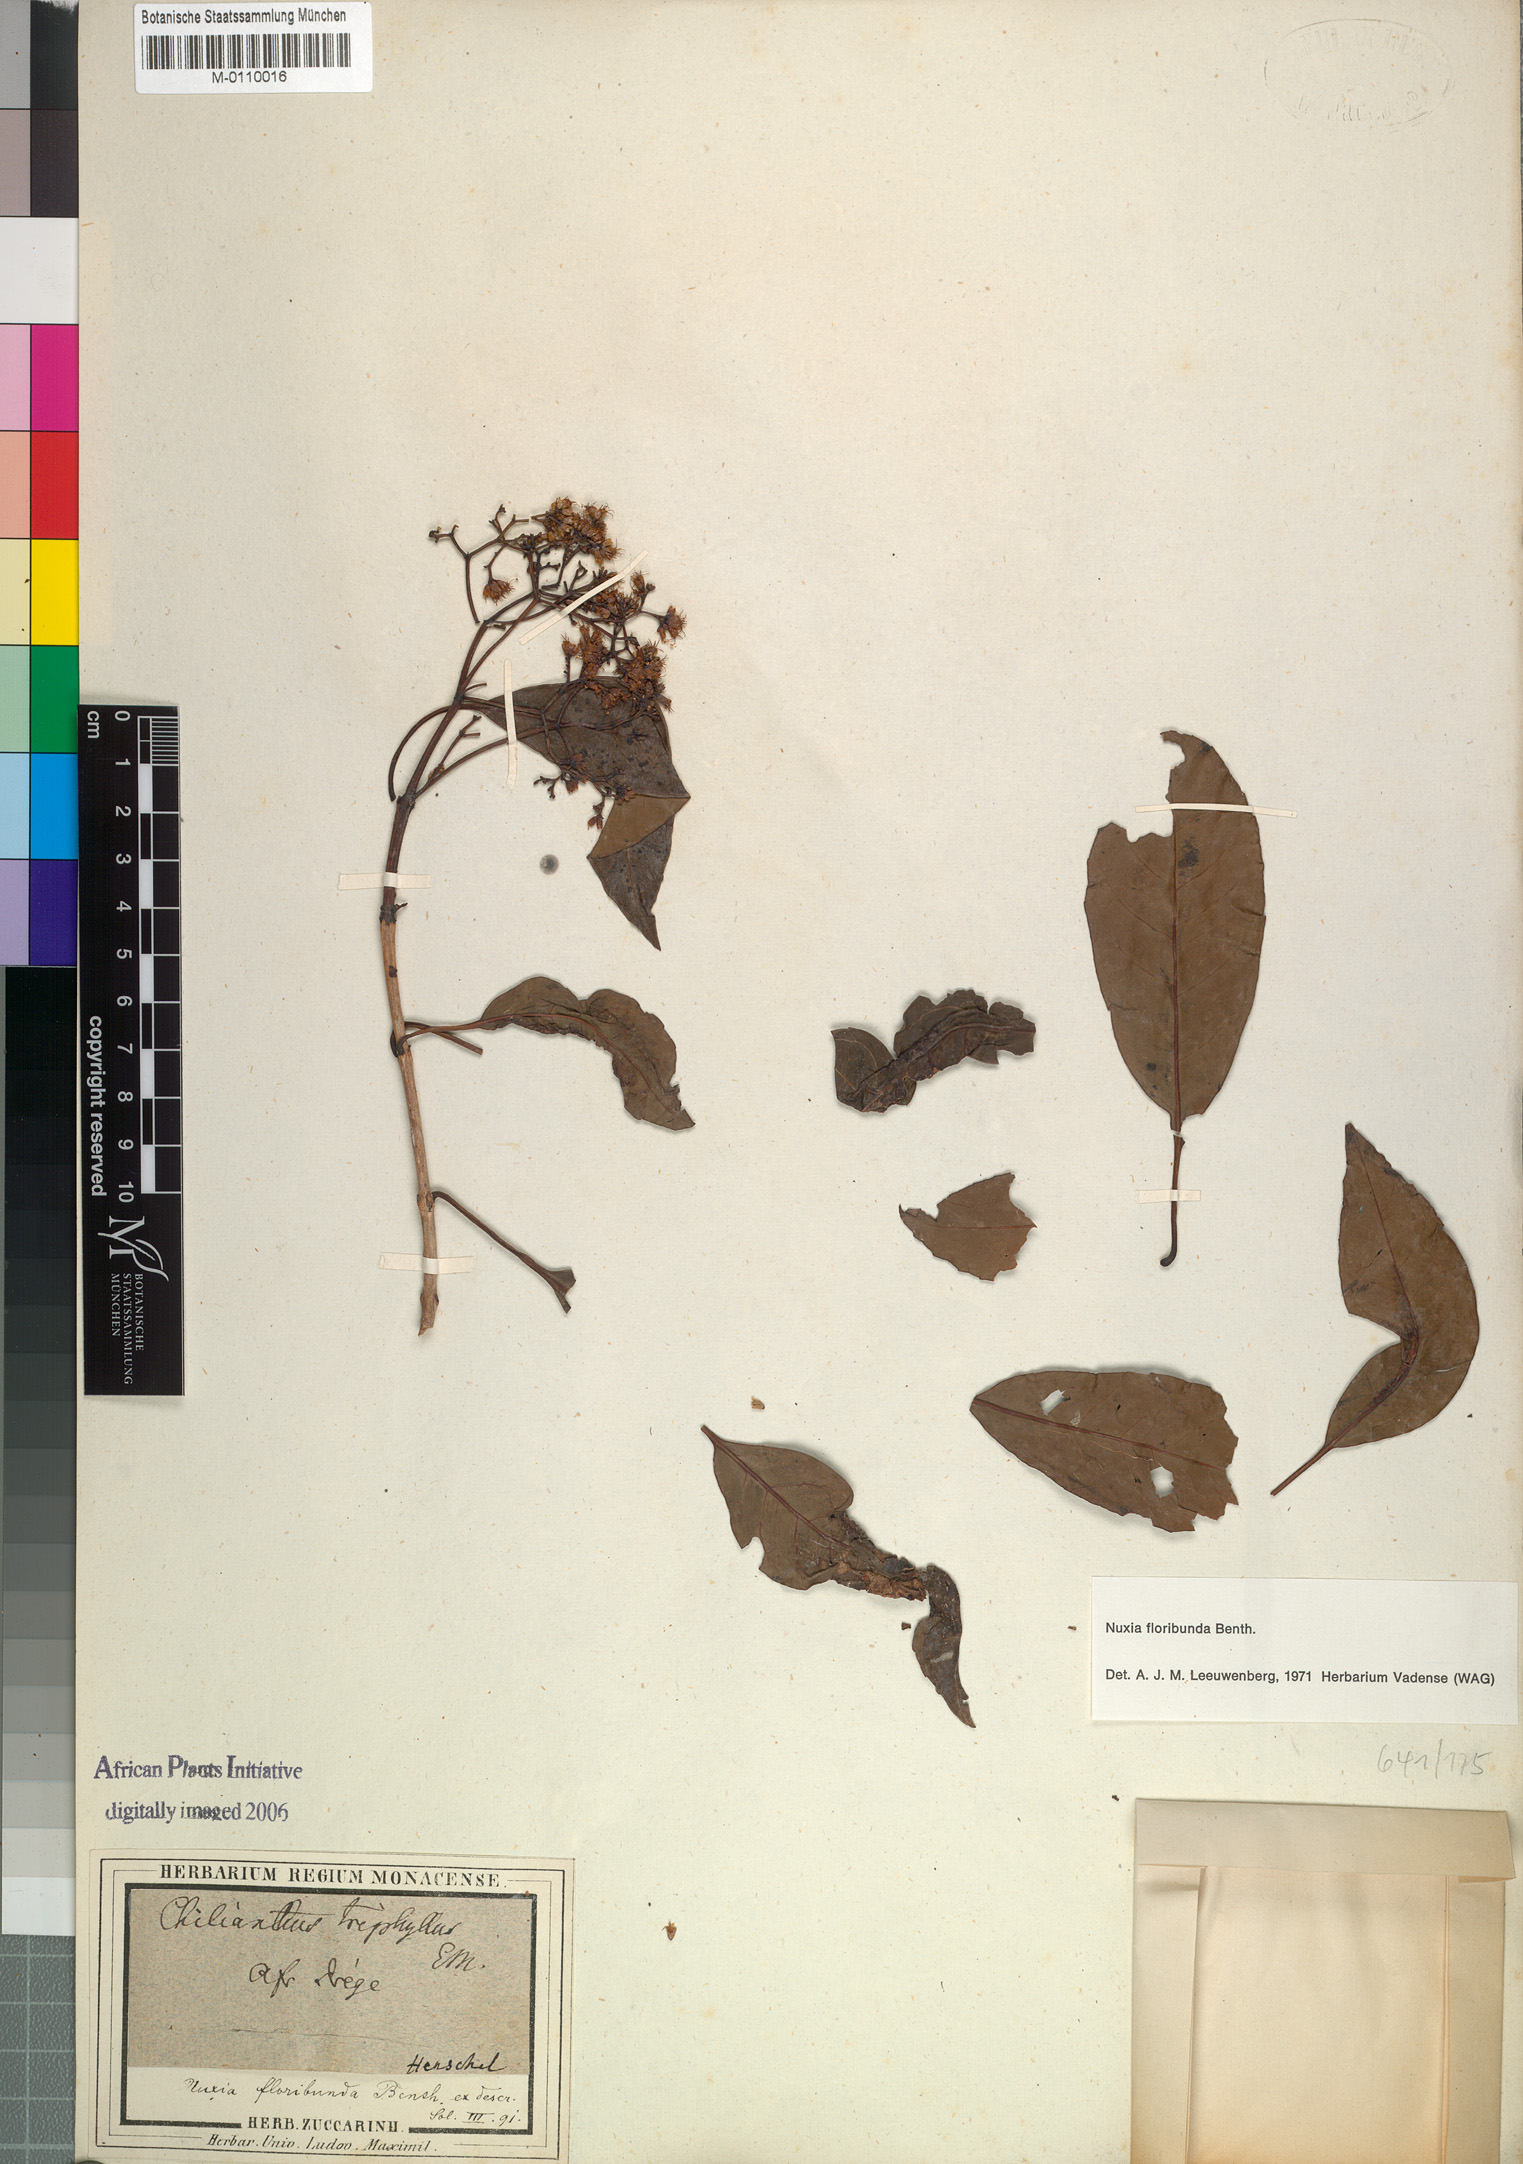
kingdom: Plantae
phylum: Tracheophyta
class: Magnoliopsida
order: Lamiales
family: Stilbaceae
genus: Nuxia
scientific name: Nuxia floribunda
